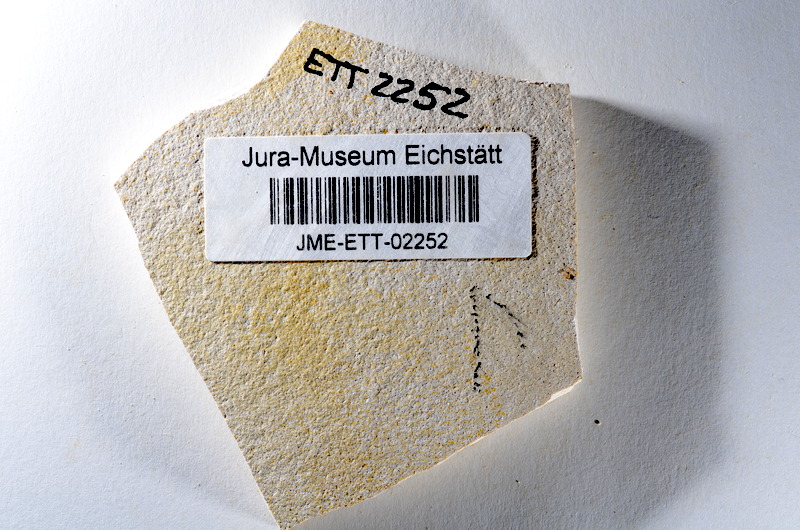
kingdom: Animalia
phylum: Chordata
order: Salmoniformes
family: Orthogonikleithridae
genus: Orthogonikleithrus
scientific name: Orthogonikleithrus hoelli
